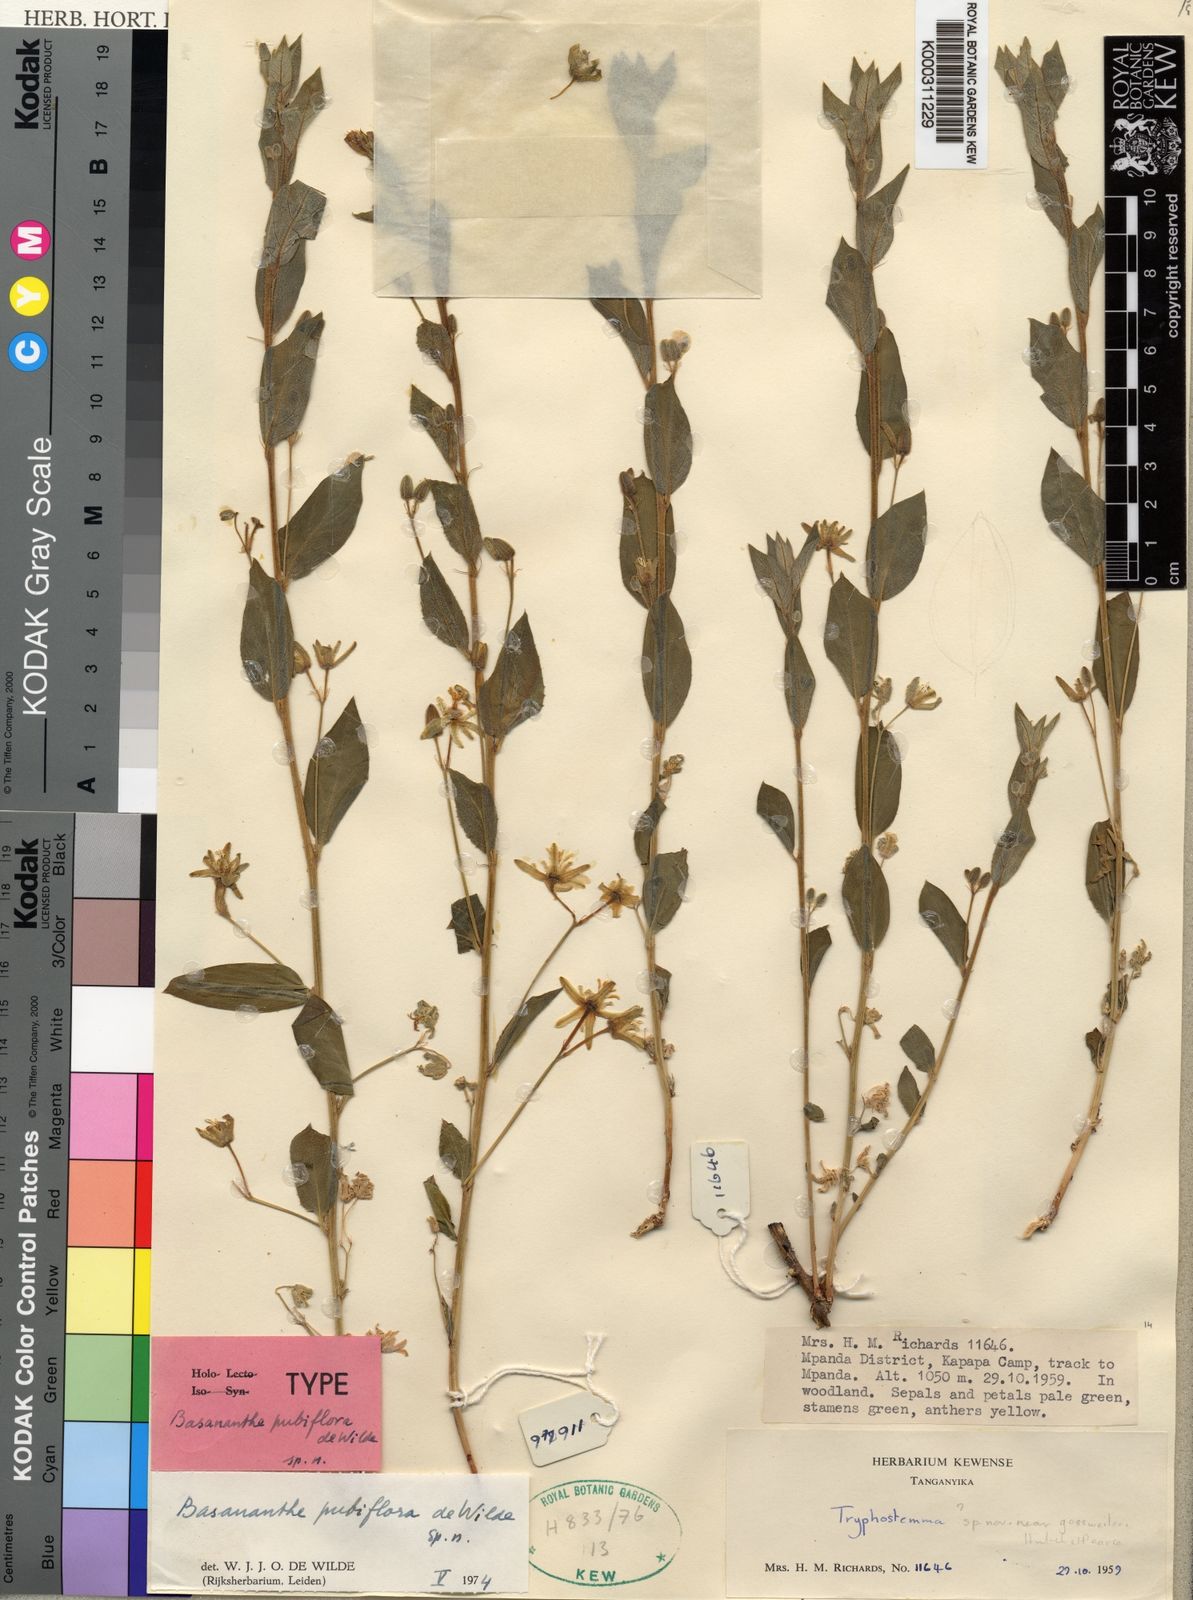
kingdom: Plantae
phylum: Tracheophyta
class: Magnoliopsida
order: Malpighiales
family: Passifloraceae
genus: Basananthe
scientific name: Basananthe pubiflora
